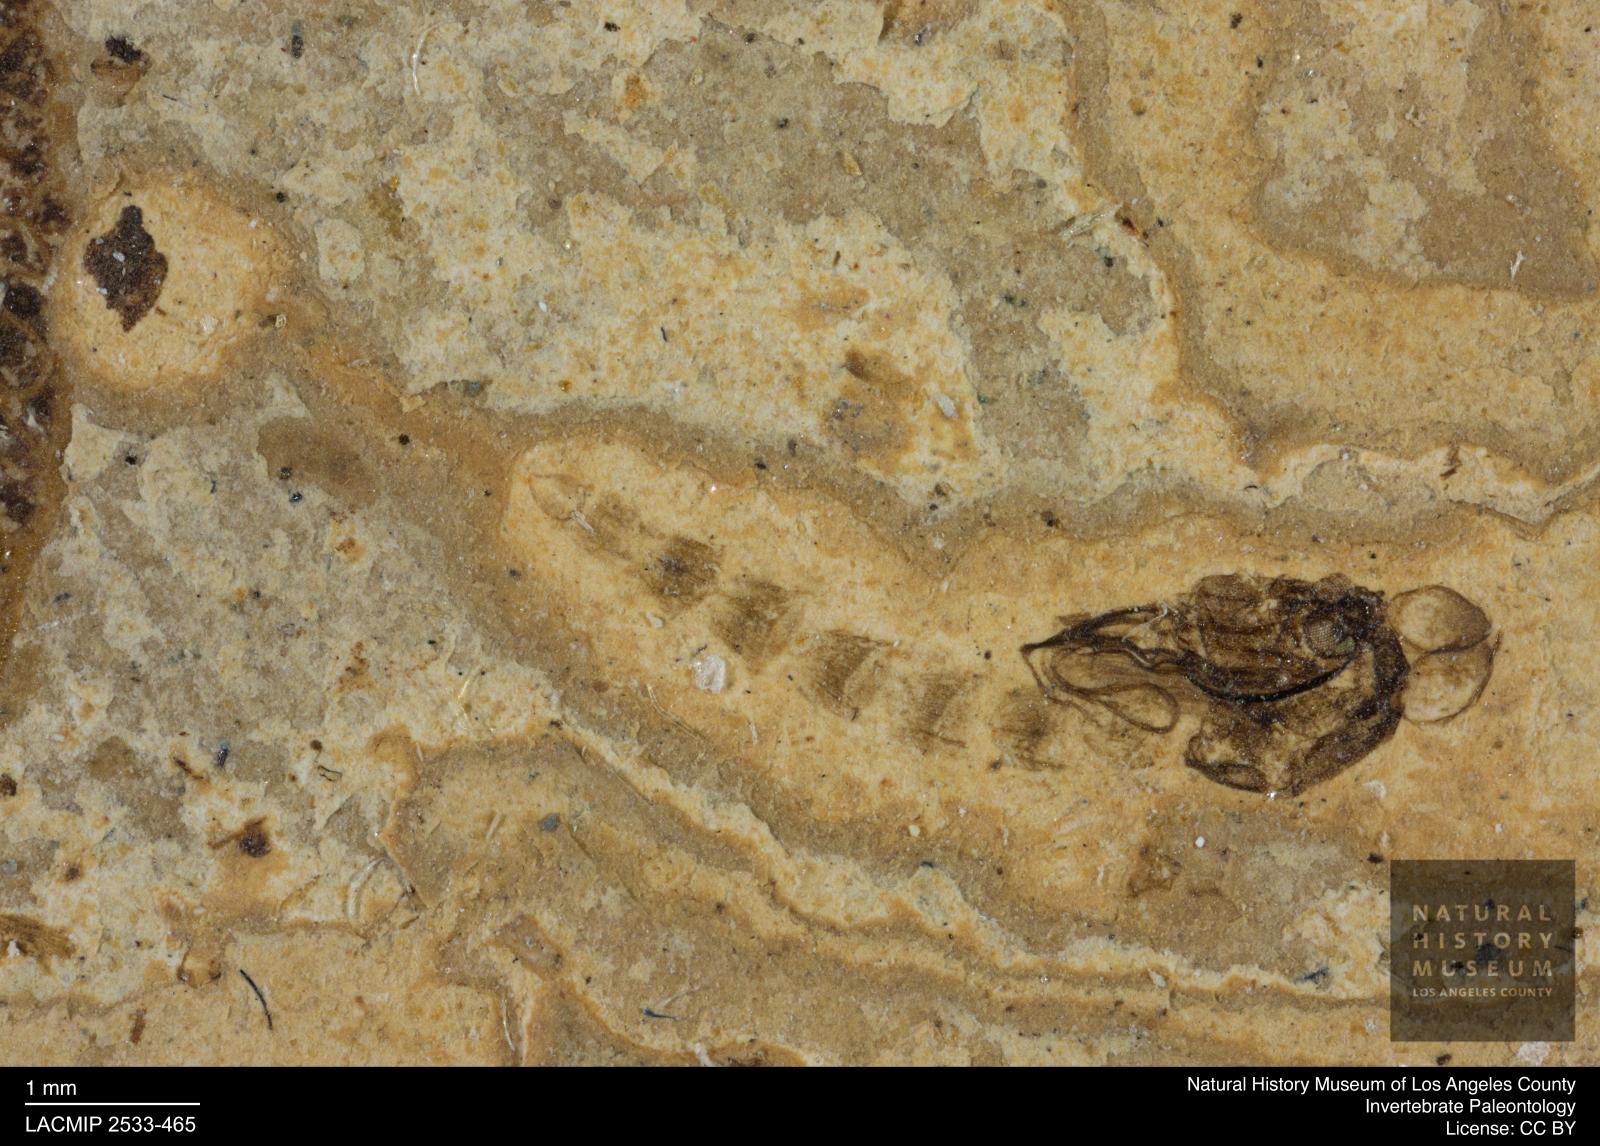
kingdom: Animalia
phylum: Arthropoda
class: Insecta
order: Diptera
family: Chironomidae
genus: Tanypus
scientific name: Tanypus
